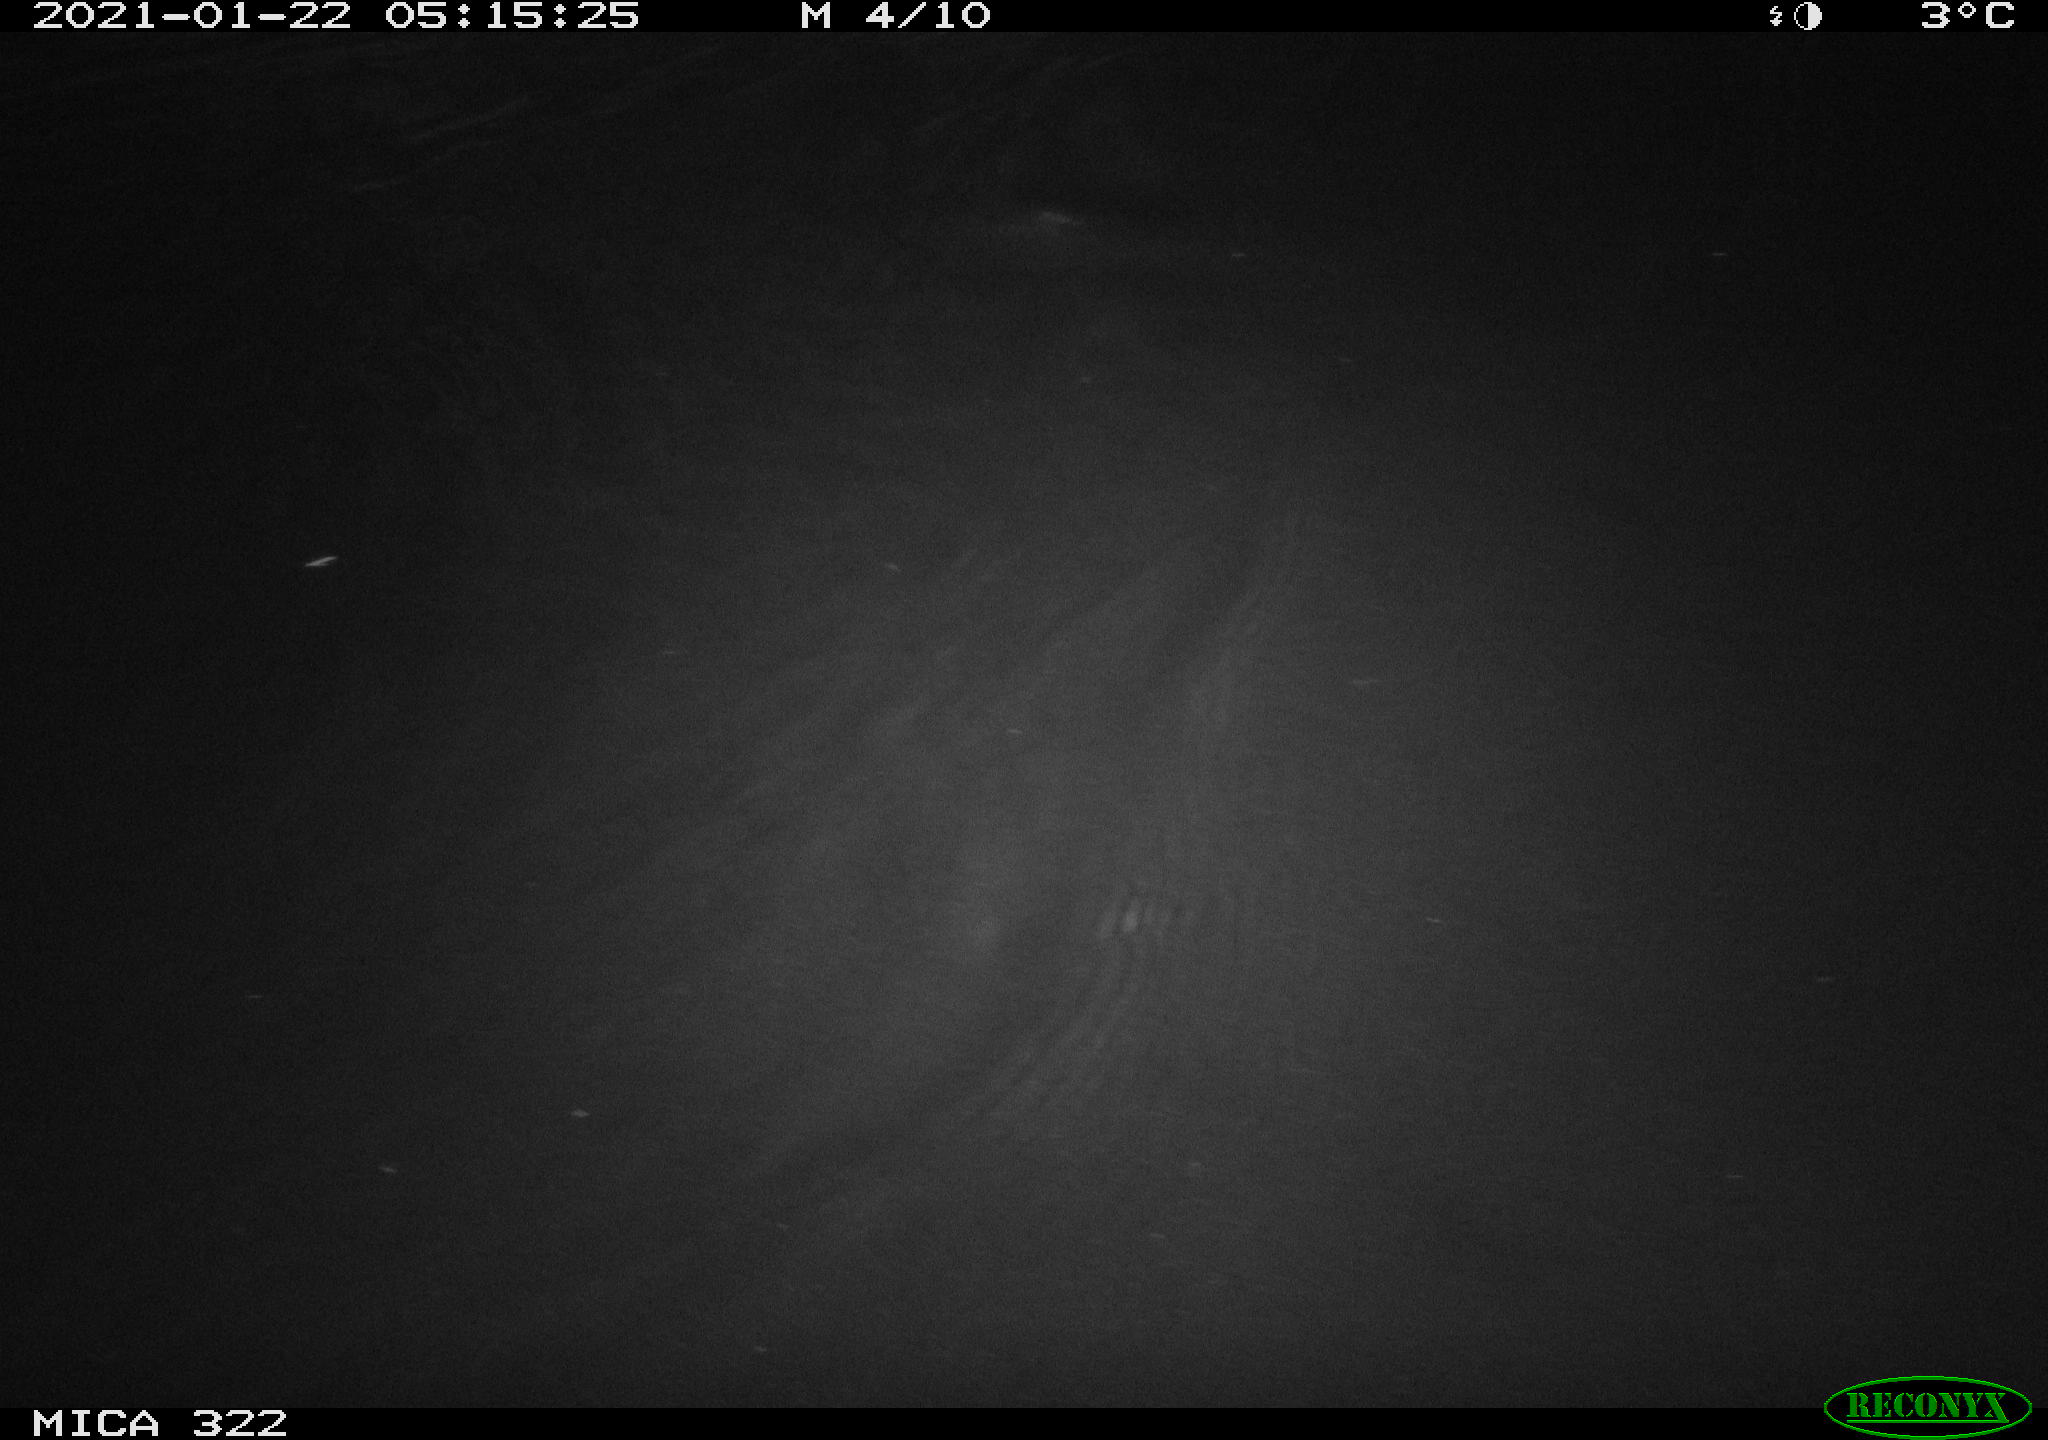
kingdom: Animalia
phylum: Chordata
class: Aves
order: Anseriformes
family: Anatidae
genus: Anas
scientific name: Anas platyrhynchos
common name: Mallard
